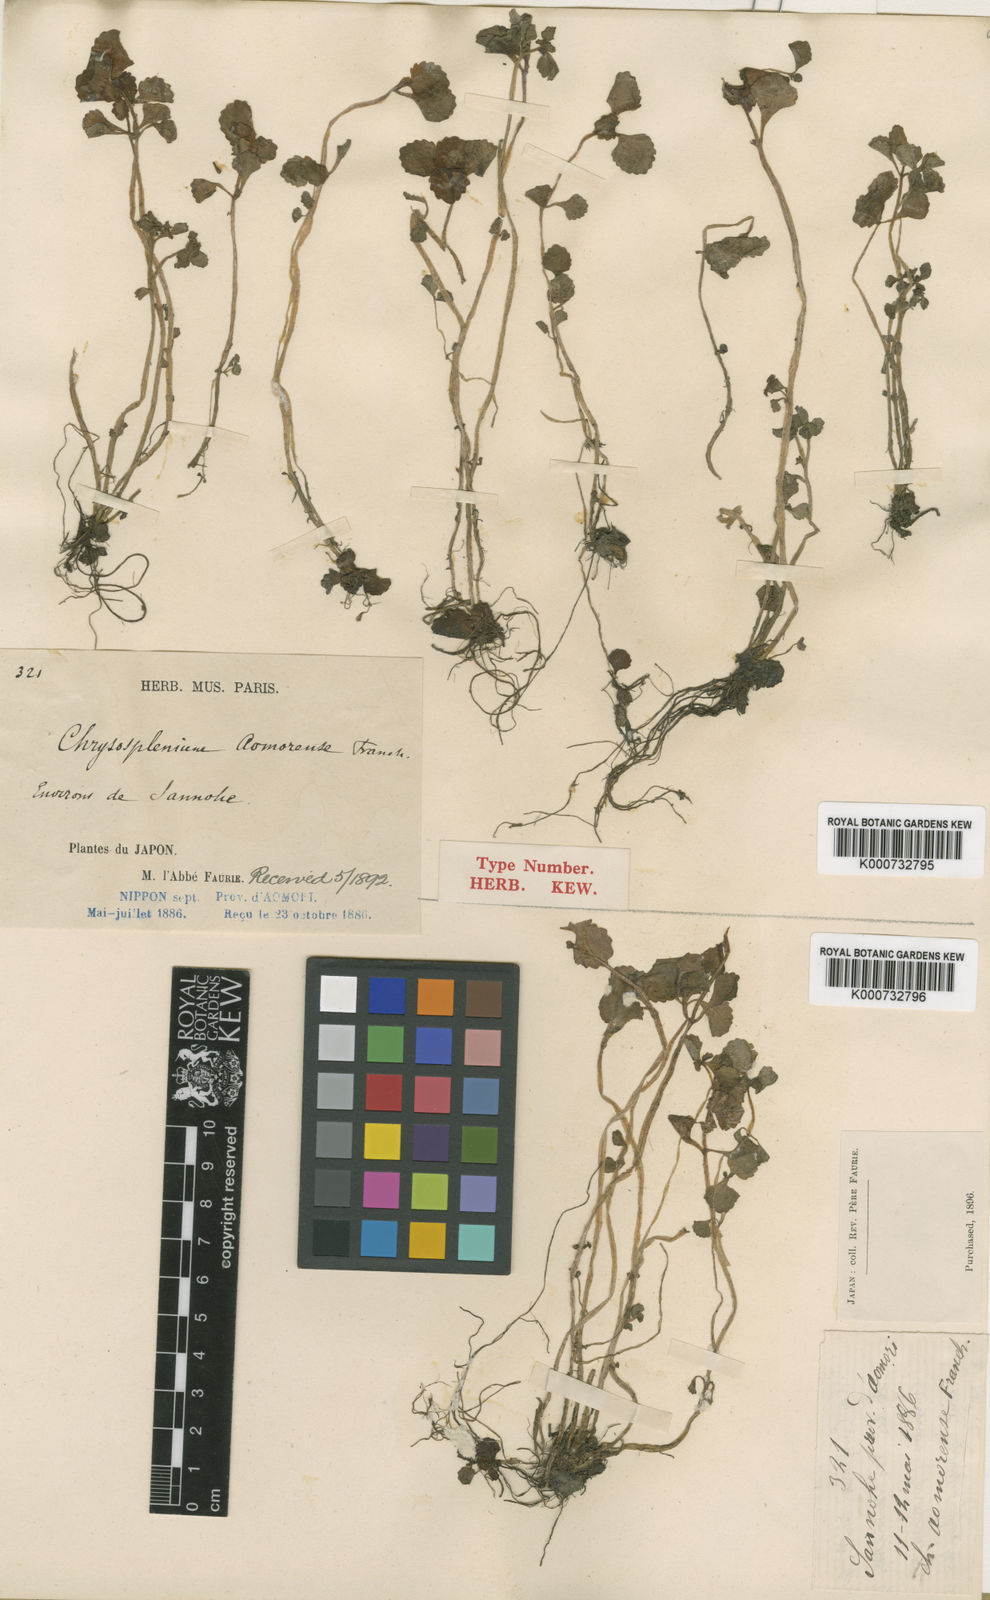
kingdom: Plantae
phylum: Tracheophyta
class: Magnoliopsida
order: Saxifragales
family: Saxifragaceae
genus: Chrysosplenium
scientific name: Chrysosplenium kamtschaticum
